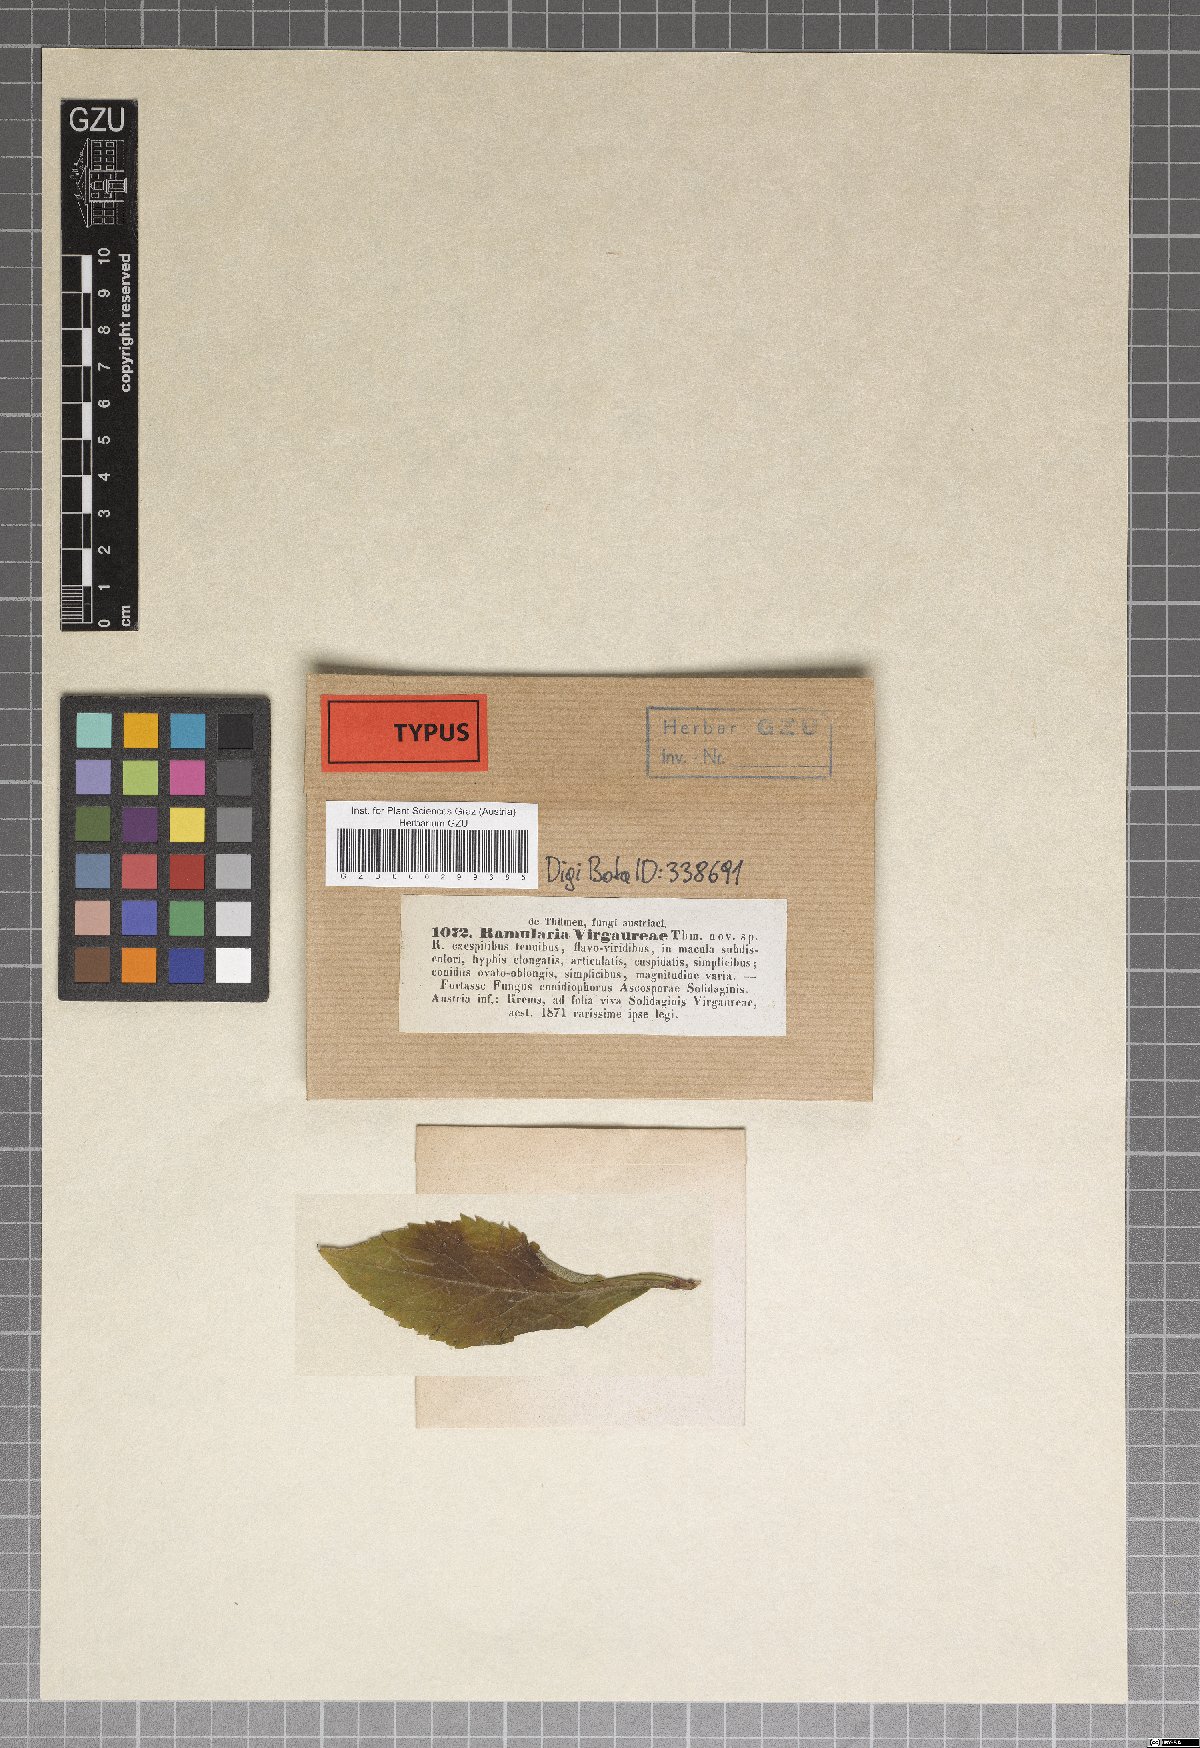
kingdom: Fungi
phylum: Ascomycota
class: Dothideomycetes
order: Mycosphaerellales
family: Mycosphaerellaceae
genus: Cercosporella
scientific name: Cercosporella virgaureae
